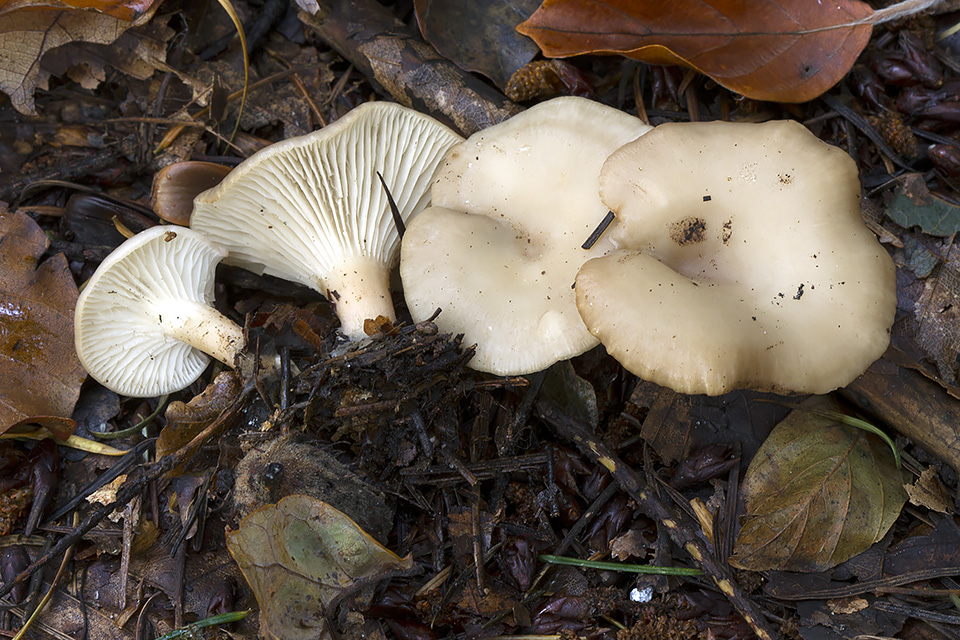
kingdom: Fungi
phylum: Basidiomycota
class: Agaricomycetes
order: Agaricales
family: Tricholomataceae
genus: Clitocybe
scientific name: Clitocybe phaeophthalma
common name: stinkende tragthat
